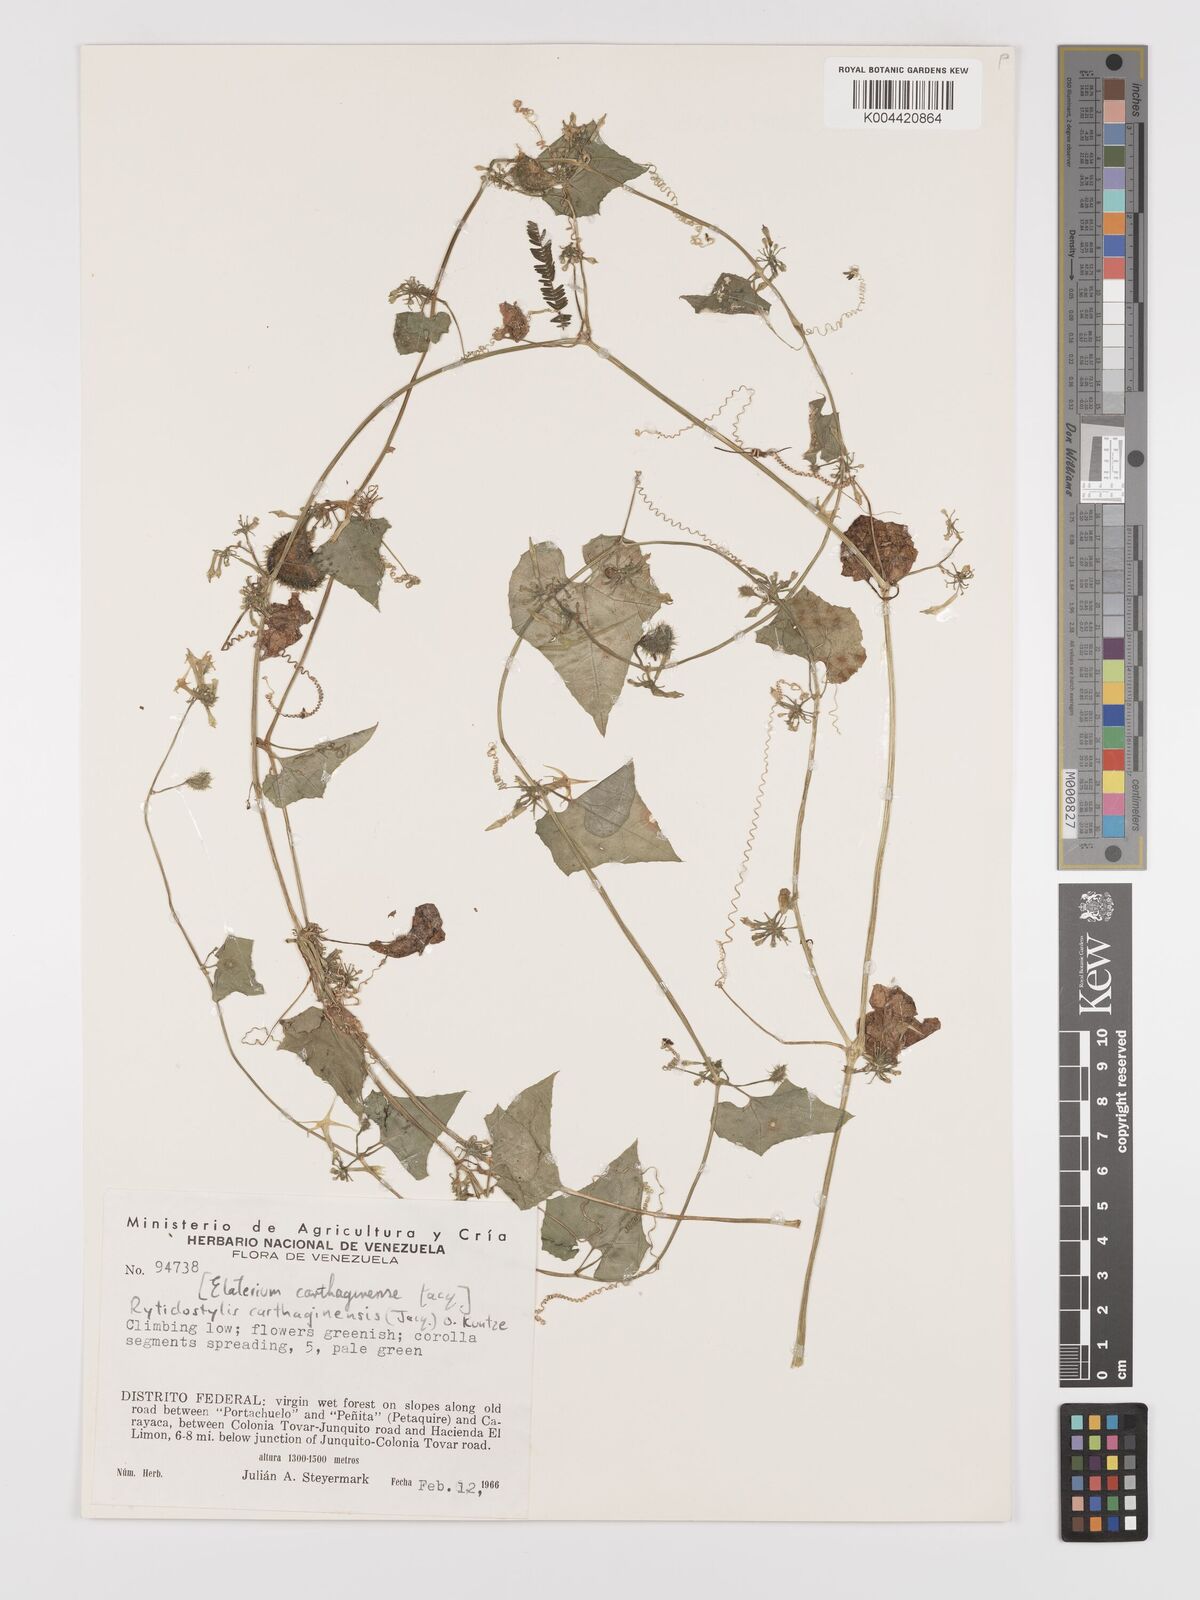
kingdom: Plantae
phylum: Tracheophyta
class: Magnoliopsida
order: Cucurbitales
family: Cucurbitaceae
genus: Cyclanthera
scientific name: Cyclanthera carthagenensis
